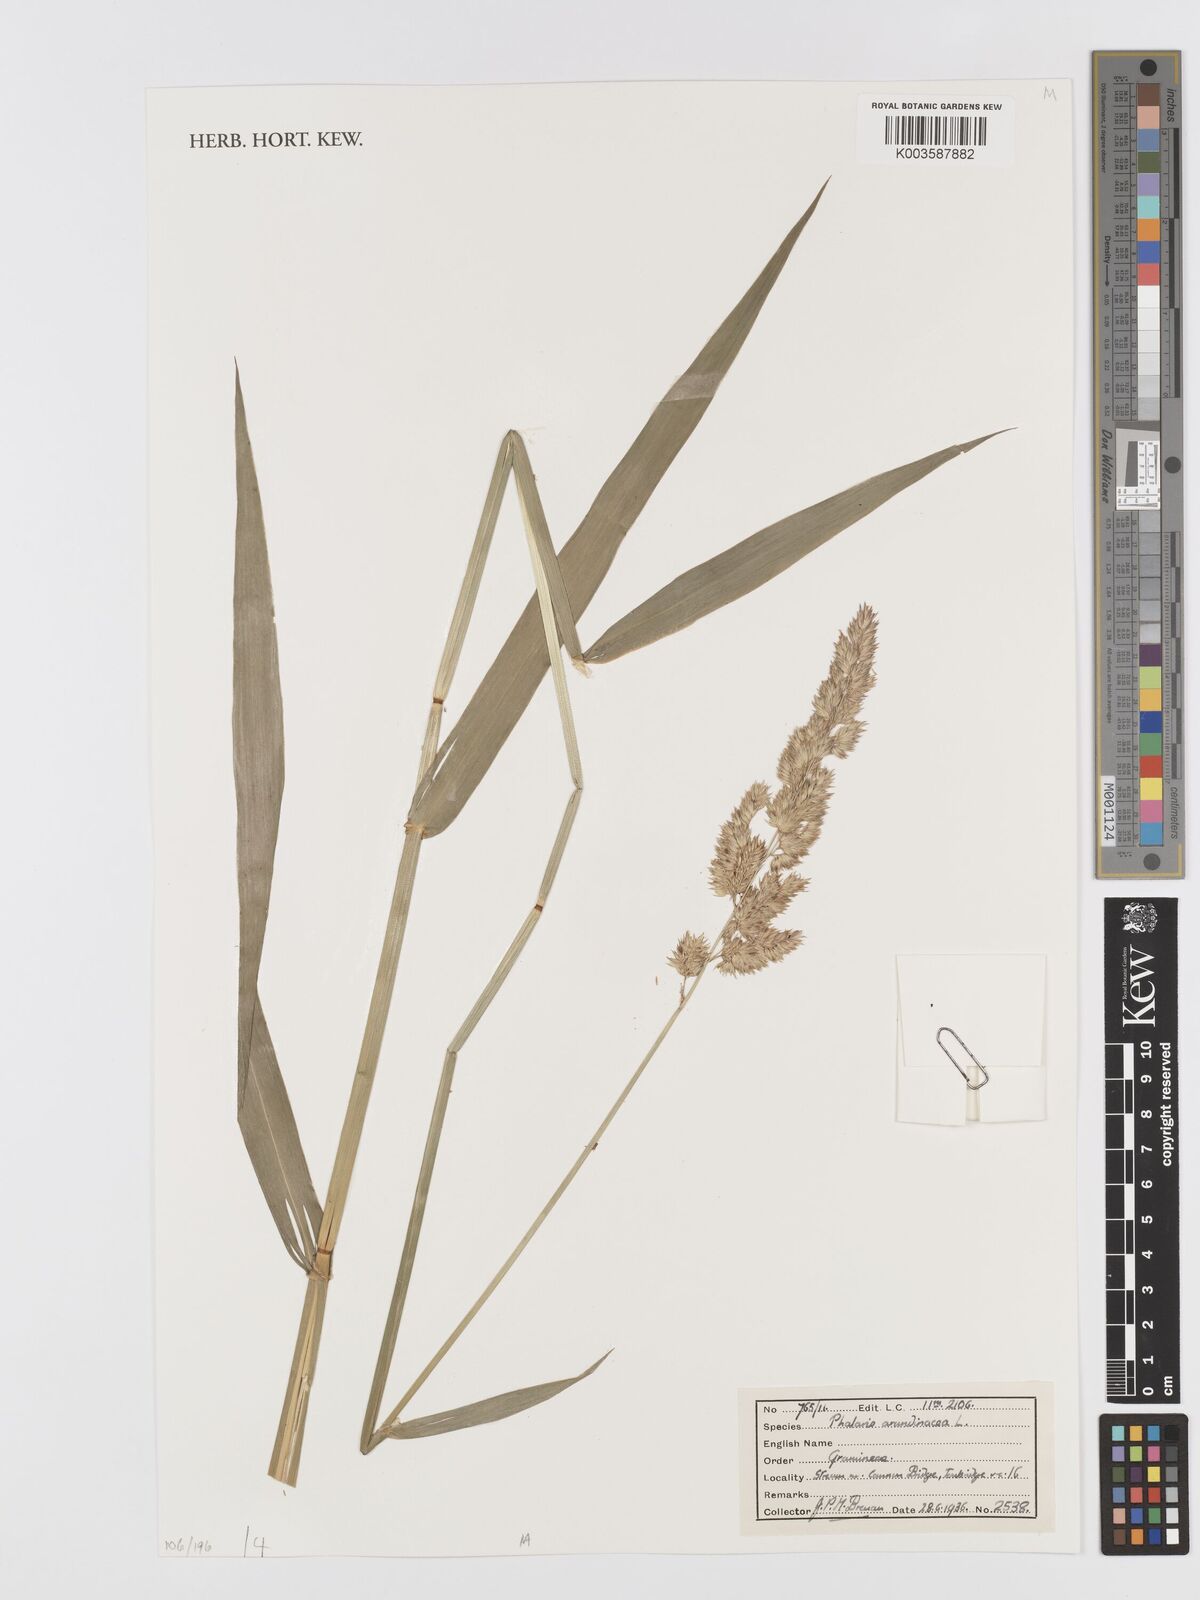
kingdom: Plantae
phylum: Tracheophyta
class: Liliopsida
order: Poales
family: Poaceae
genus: Phalaris
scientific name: Phalaris arundinacea
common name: Reed canary-grass
